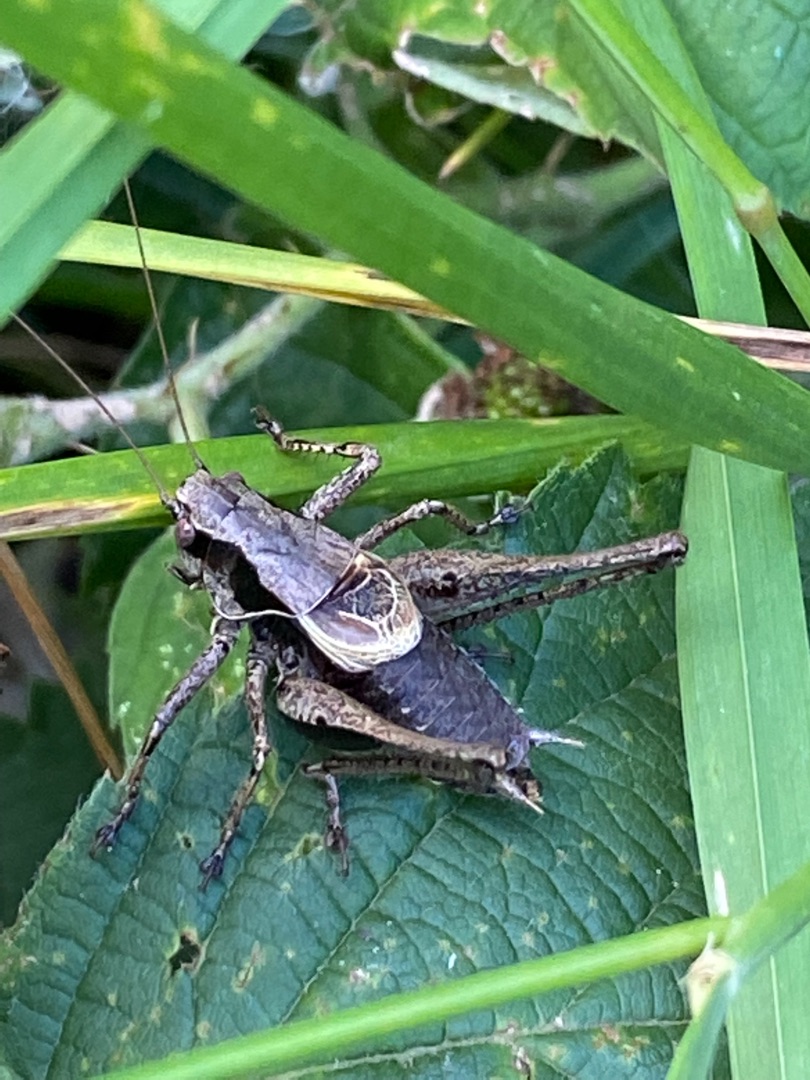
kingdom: Animalia
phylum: Arthropoda
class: Insecta
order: Orthoptera
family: Tettigoniidae
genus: Pholidoptera
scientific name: Pholidoptera griseoaptera
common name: Buskgræshoppe
